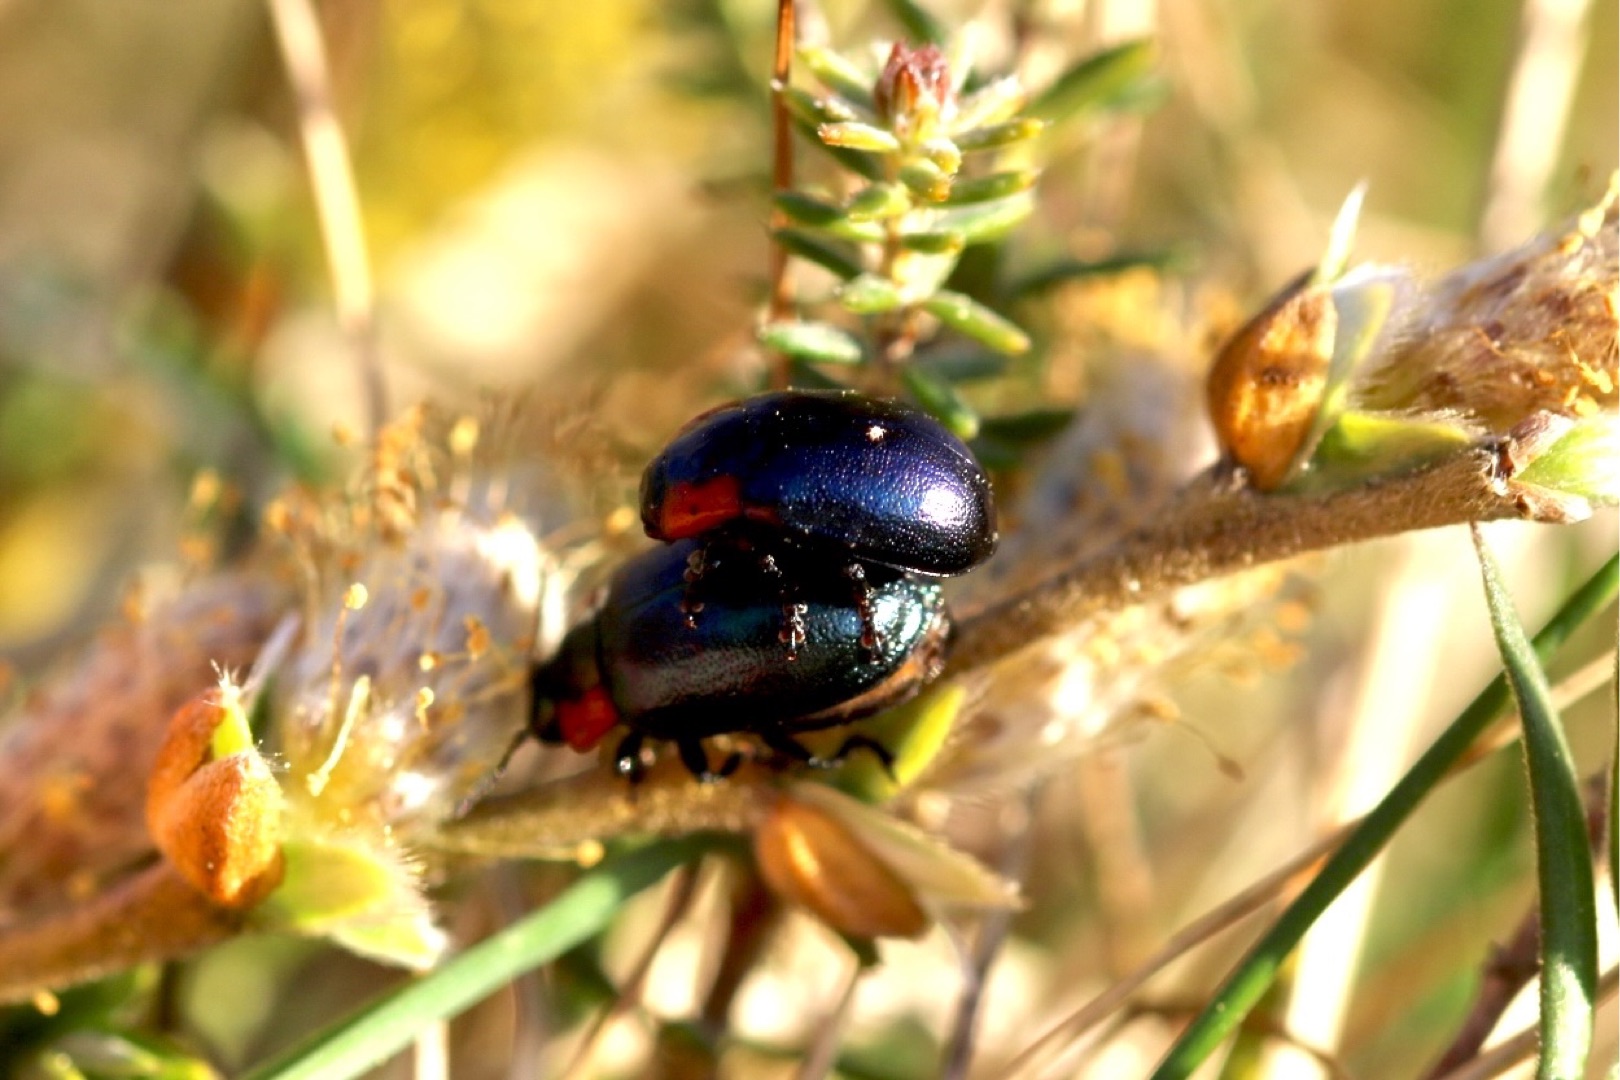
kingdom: Animalia
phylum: Arthropoda
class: Insecta
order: Coleoptera
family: Chrysomelidae
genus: Chrysomela
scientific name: Chrysomela collaris
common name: Klitbladbille
